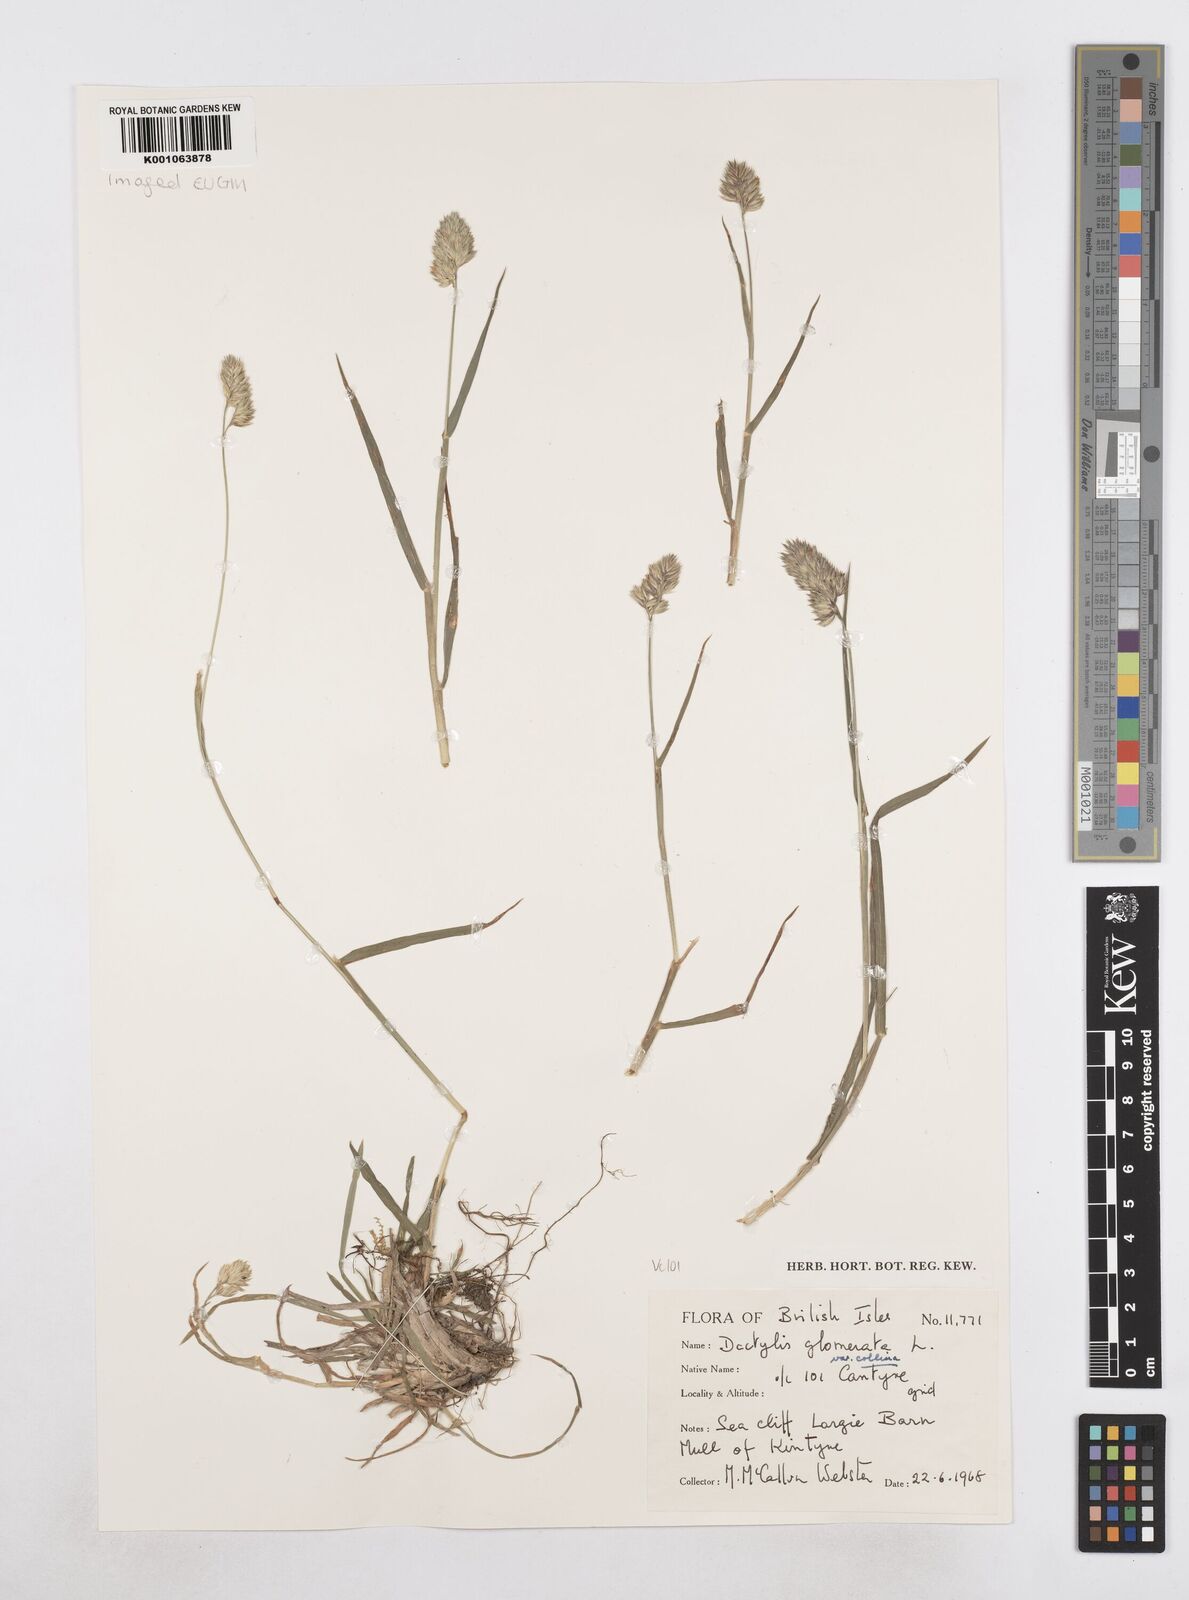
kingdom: Plantae
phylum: Tracheophyta
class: Liliopsida
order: Poales
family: Poaceae
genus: Dactylis
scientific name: Dactylis glomerata
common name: Orchardgrass
